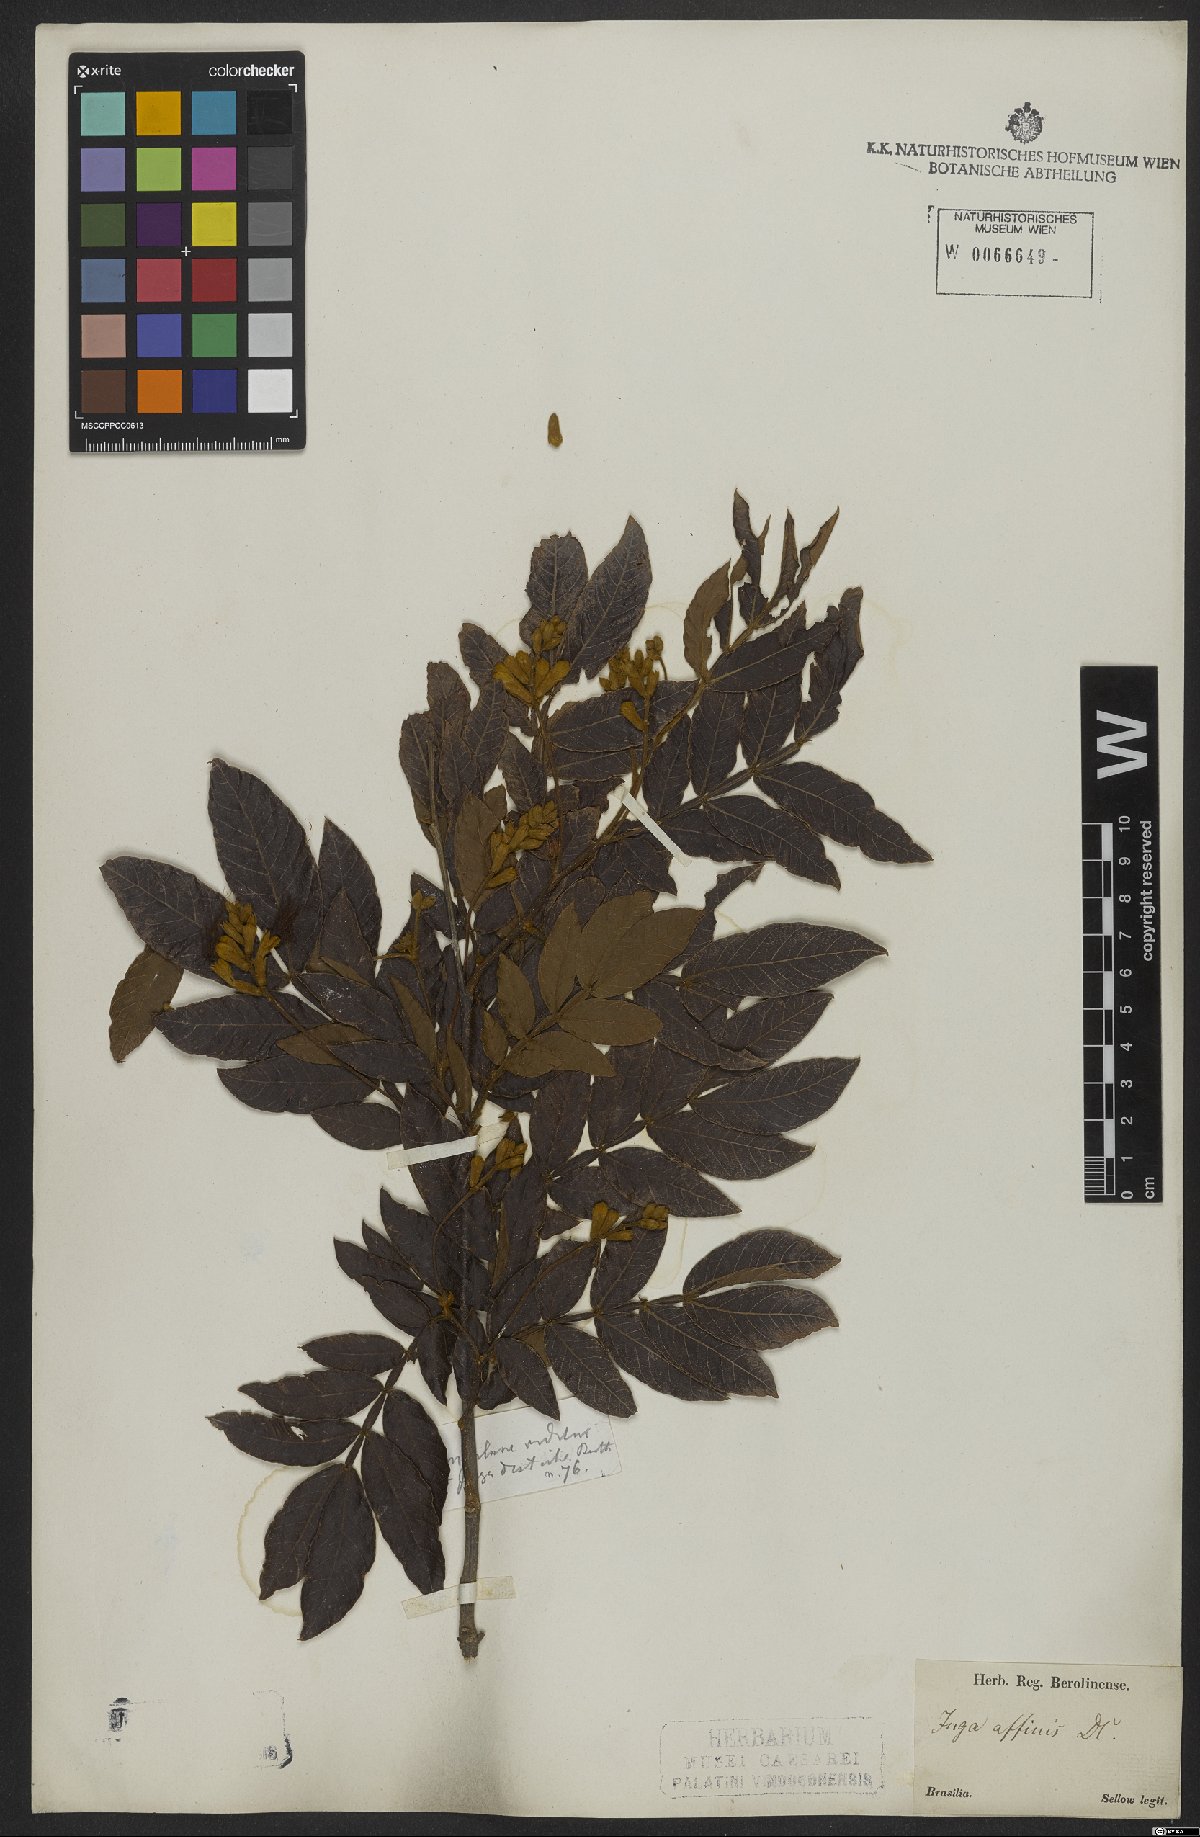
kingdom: Plantae
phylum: Tracheophyta
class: Magnoliopsida
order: Fabales
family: Fabaceae
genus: Inga
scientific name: Inga pilosula
